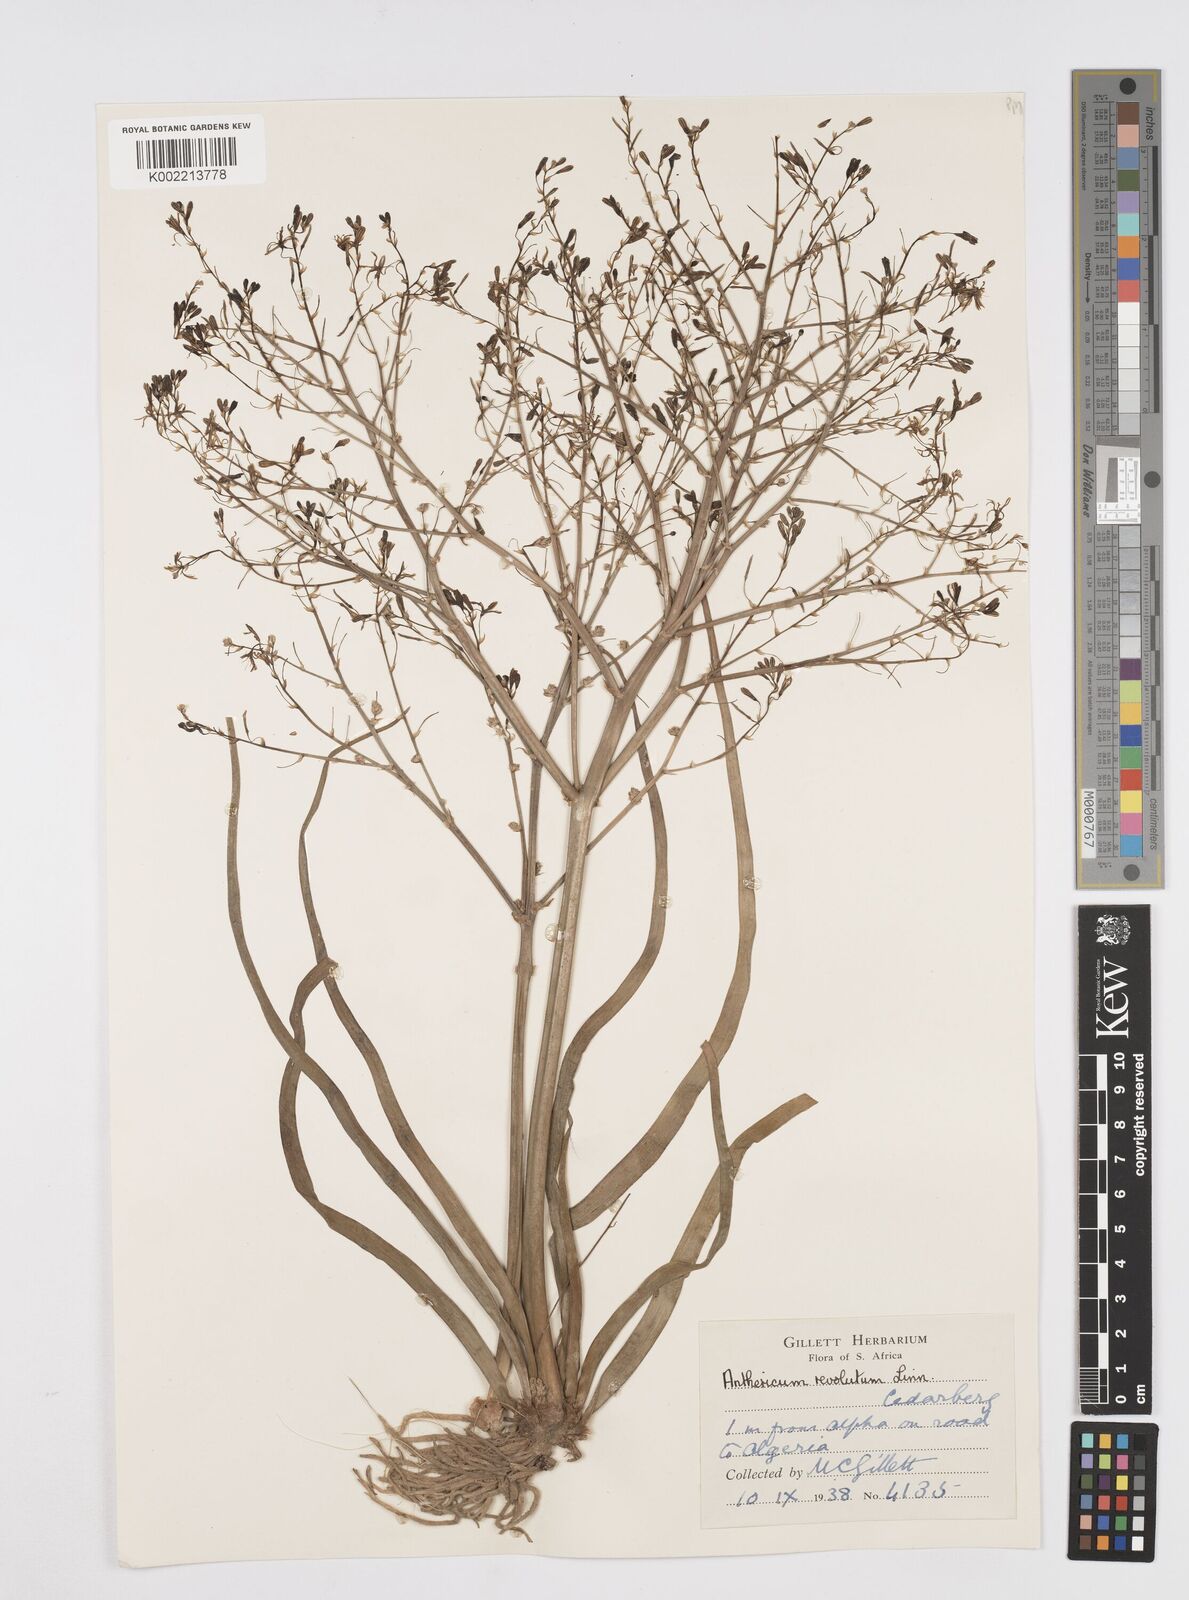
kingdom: Plantae
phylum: Tracheophyta
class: Liliopsida
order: Asparagales
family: Asphodelaceae
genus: Trachyandra
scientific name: Trachyandra revoluta
